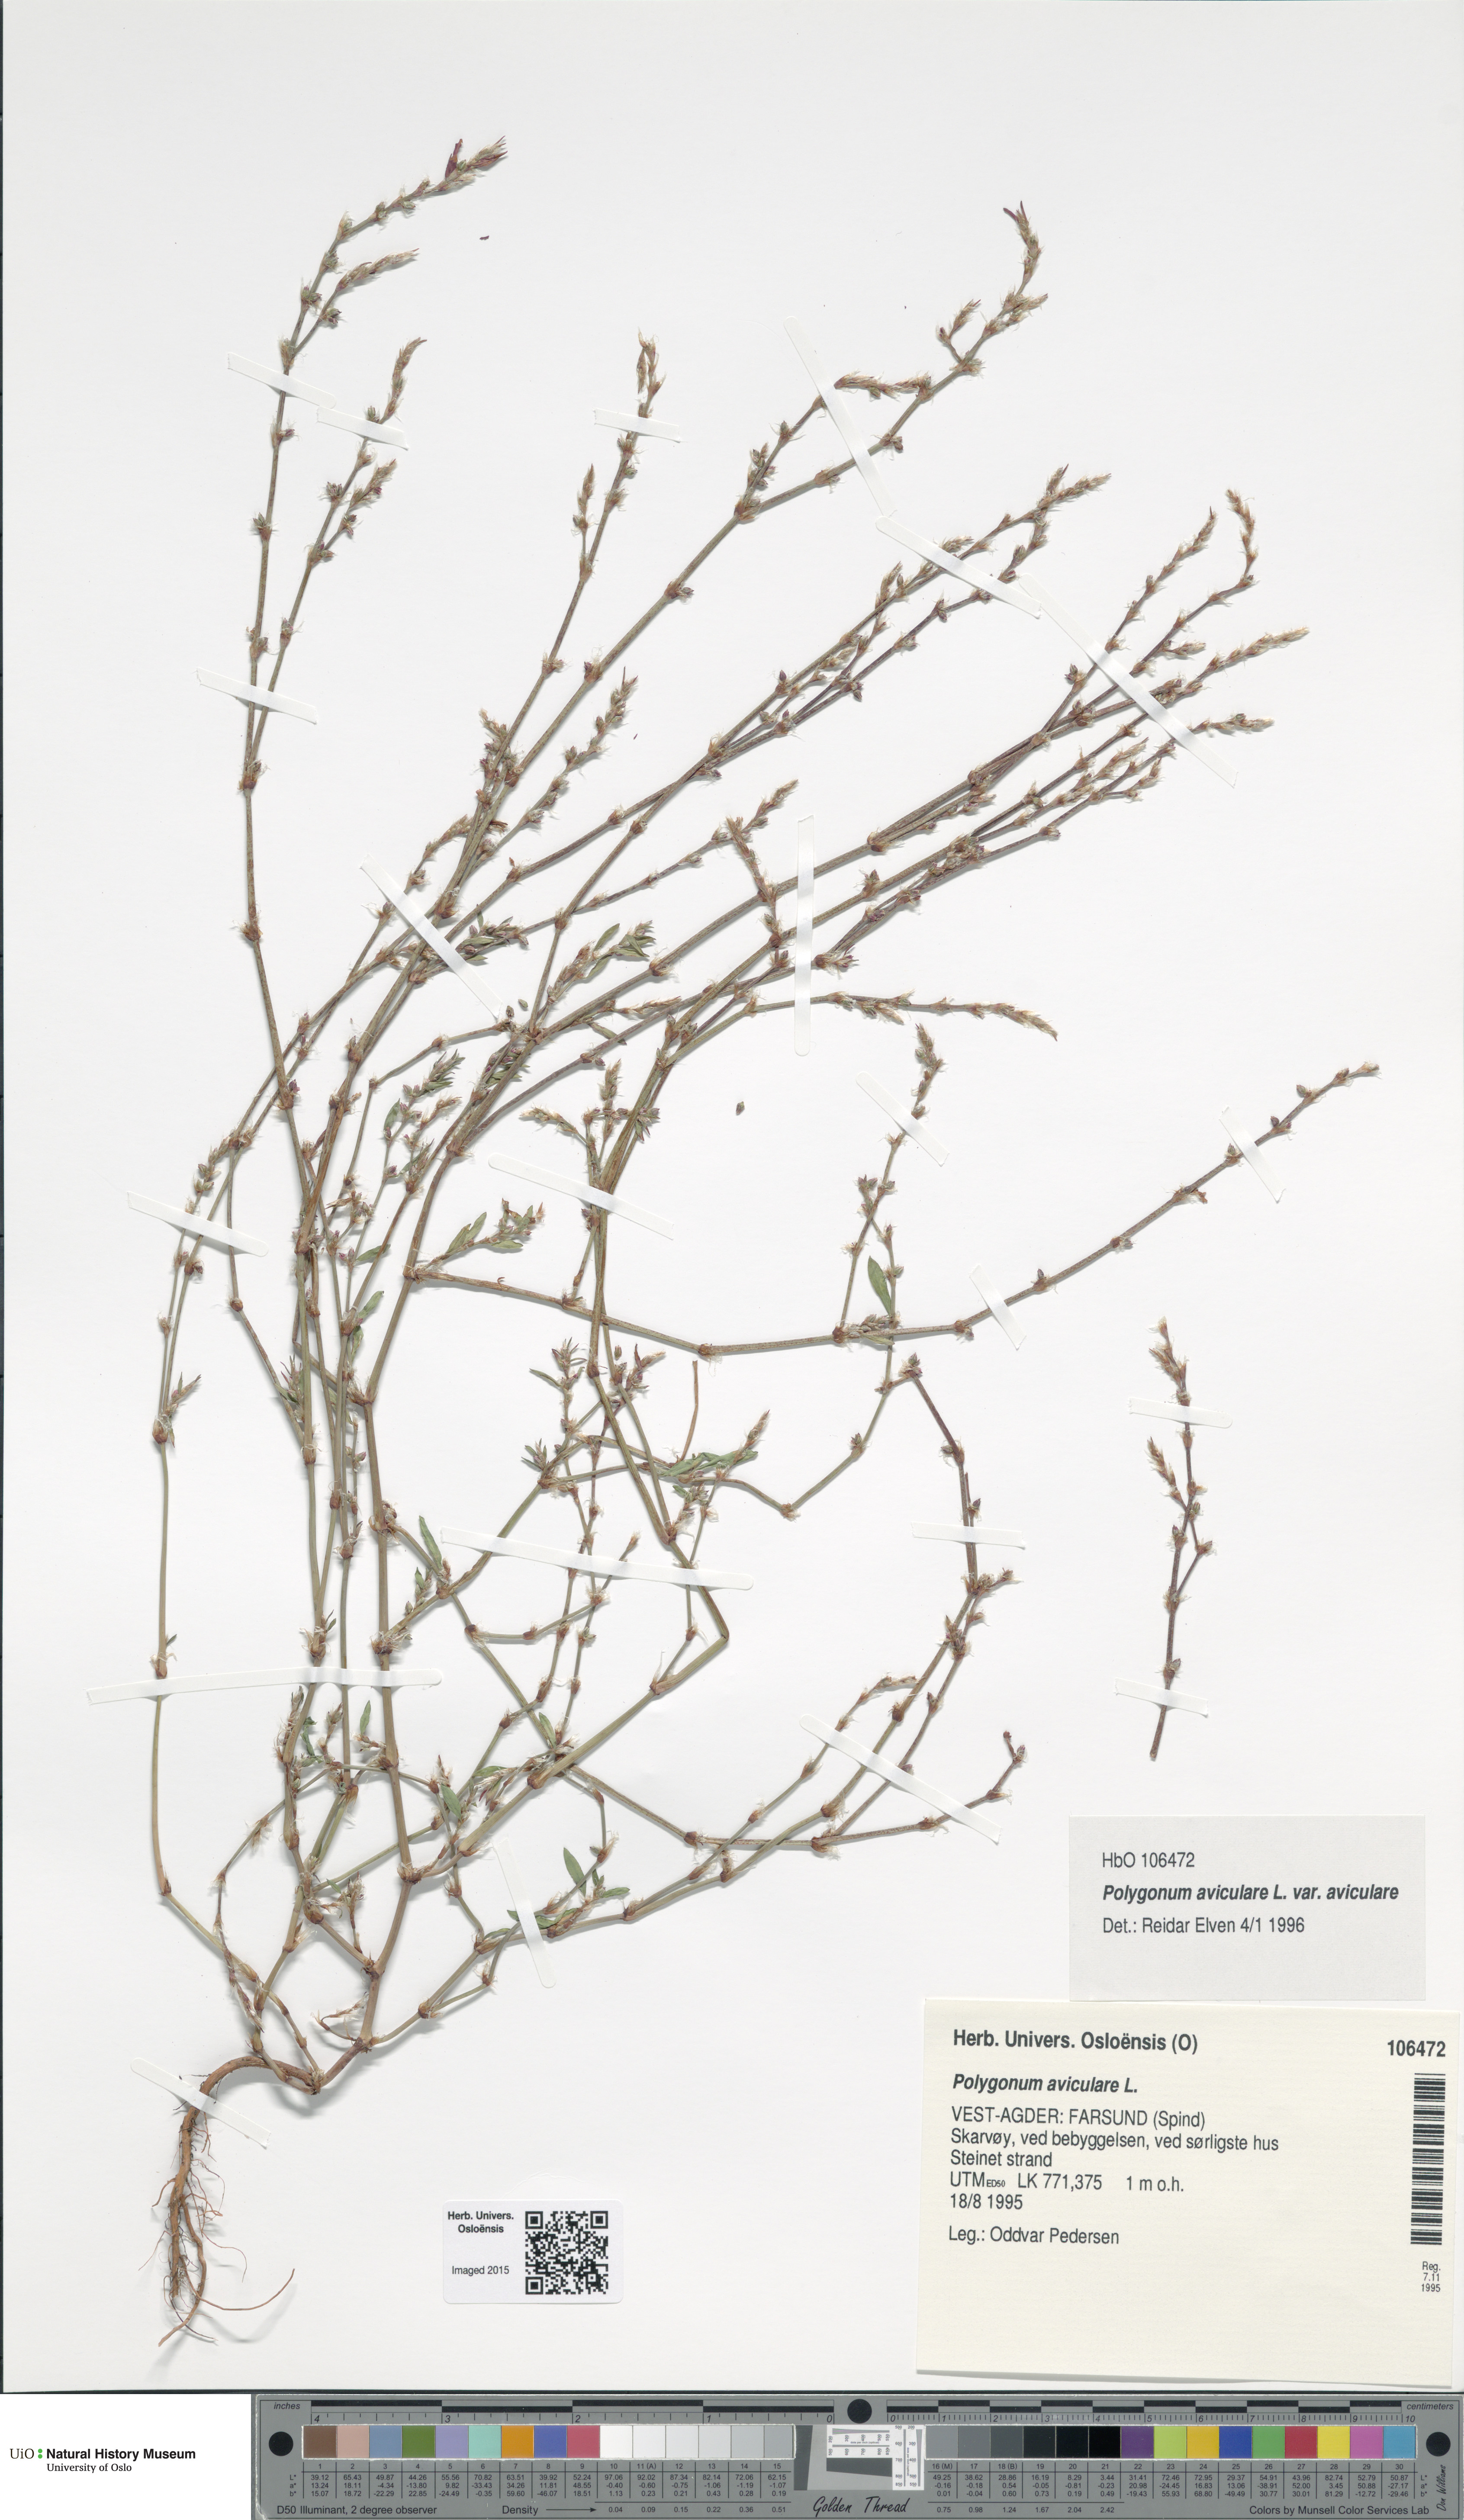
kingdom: Plantae
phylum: Tracheophyta
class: Magnoliopsida
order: Caryophyllales
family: Polygonaceae
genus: Polygonum
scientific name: Polygonum aviculare
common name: Prostrate knotweed
